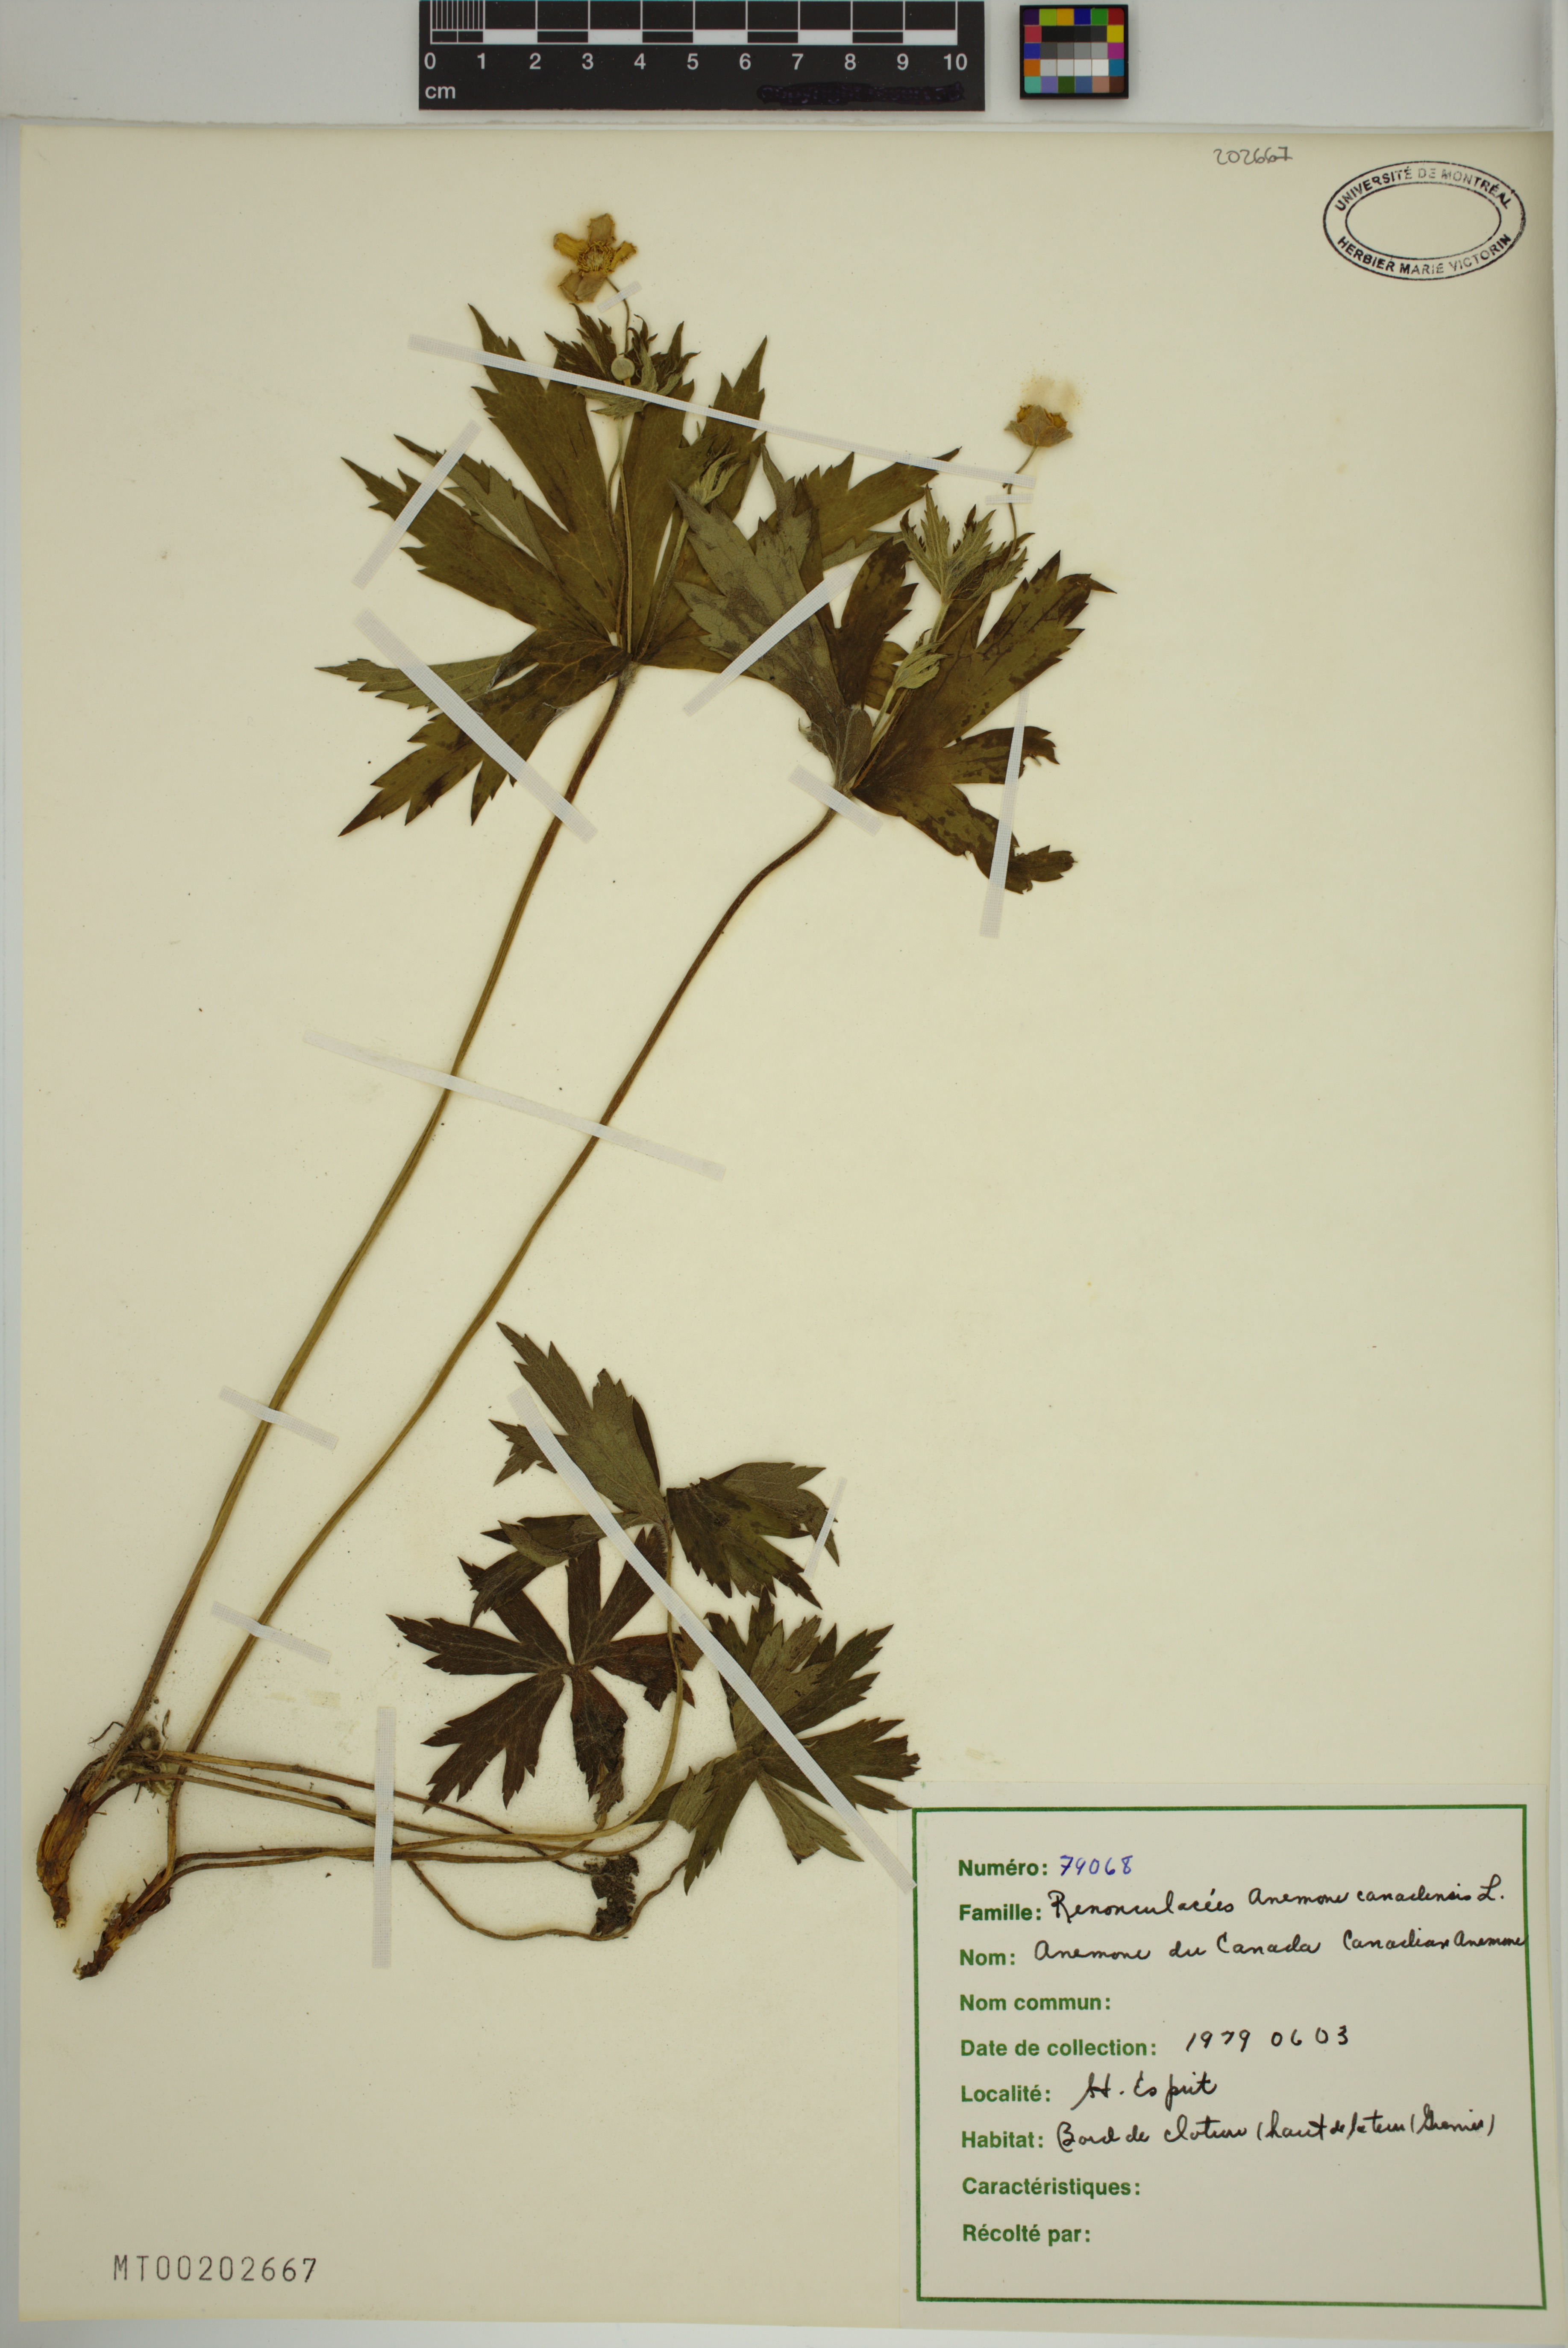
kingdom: Plantae
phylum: Tracheophyta
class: Magnoliopsida
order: Ranunculales
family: Ranunculaceae
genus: Anemonastrum
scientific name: Anemonastrum canadense
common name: Canada anemone
